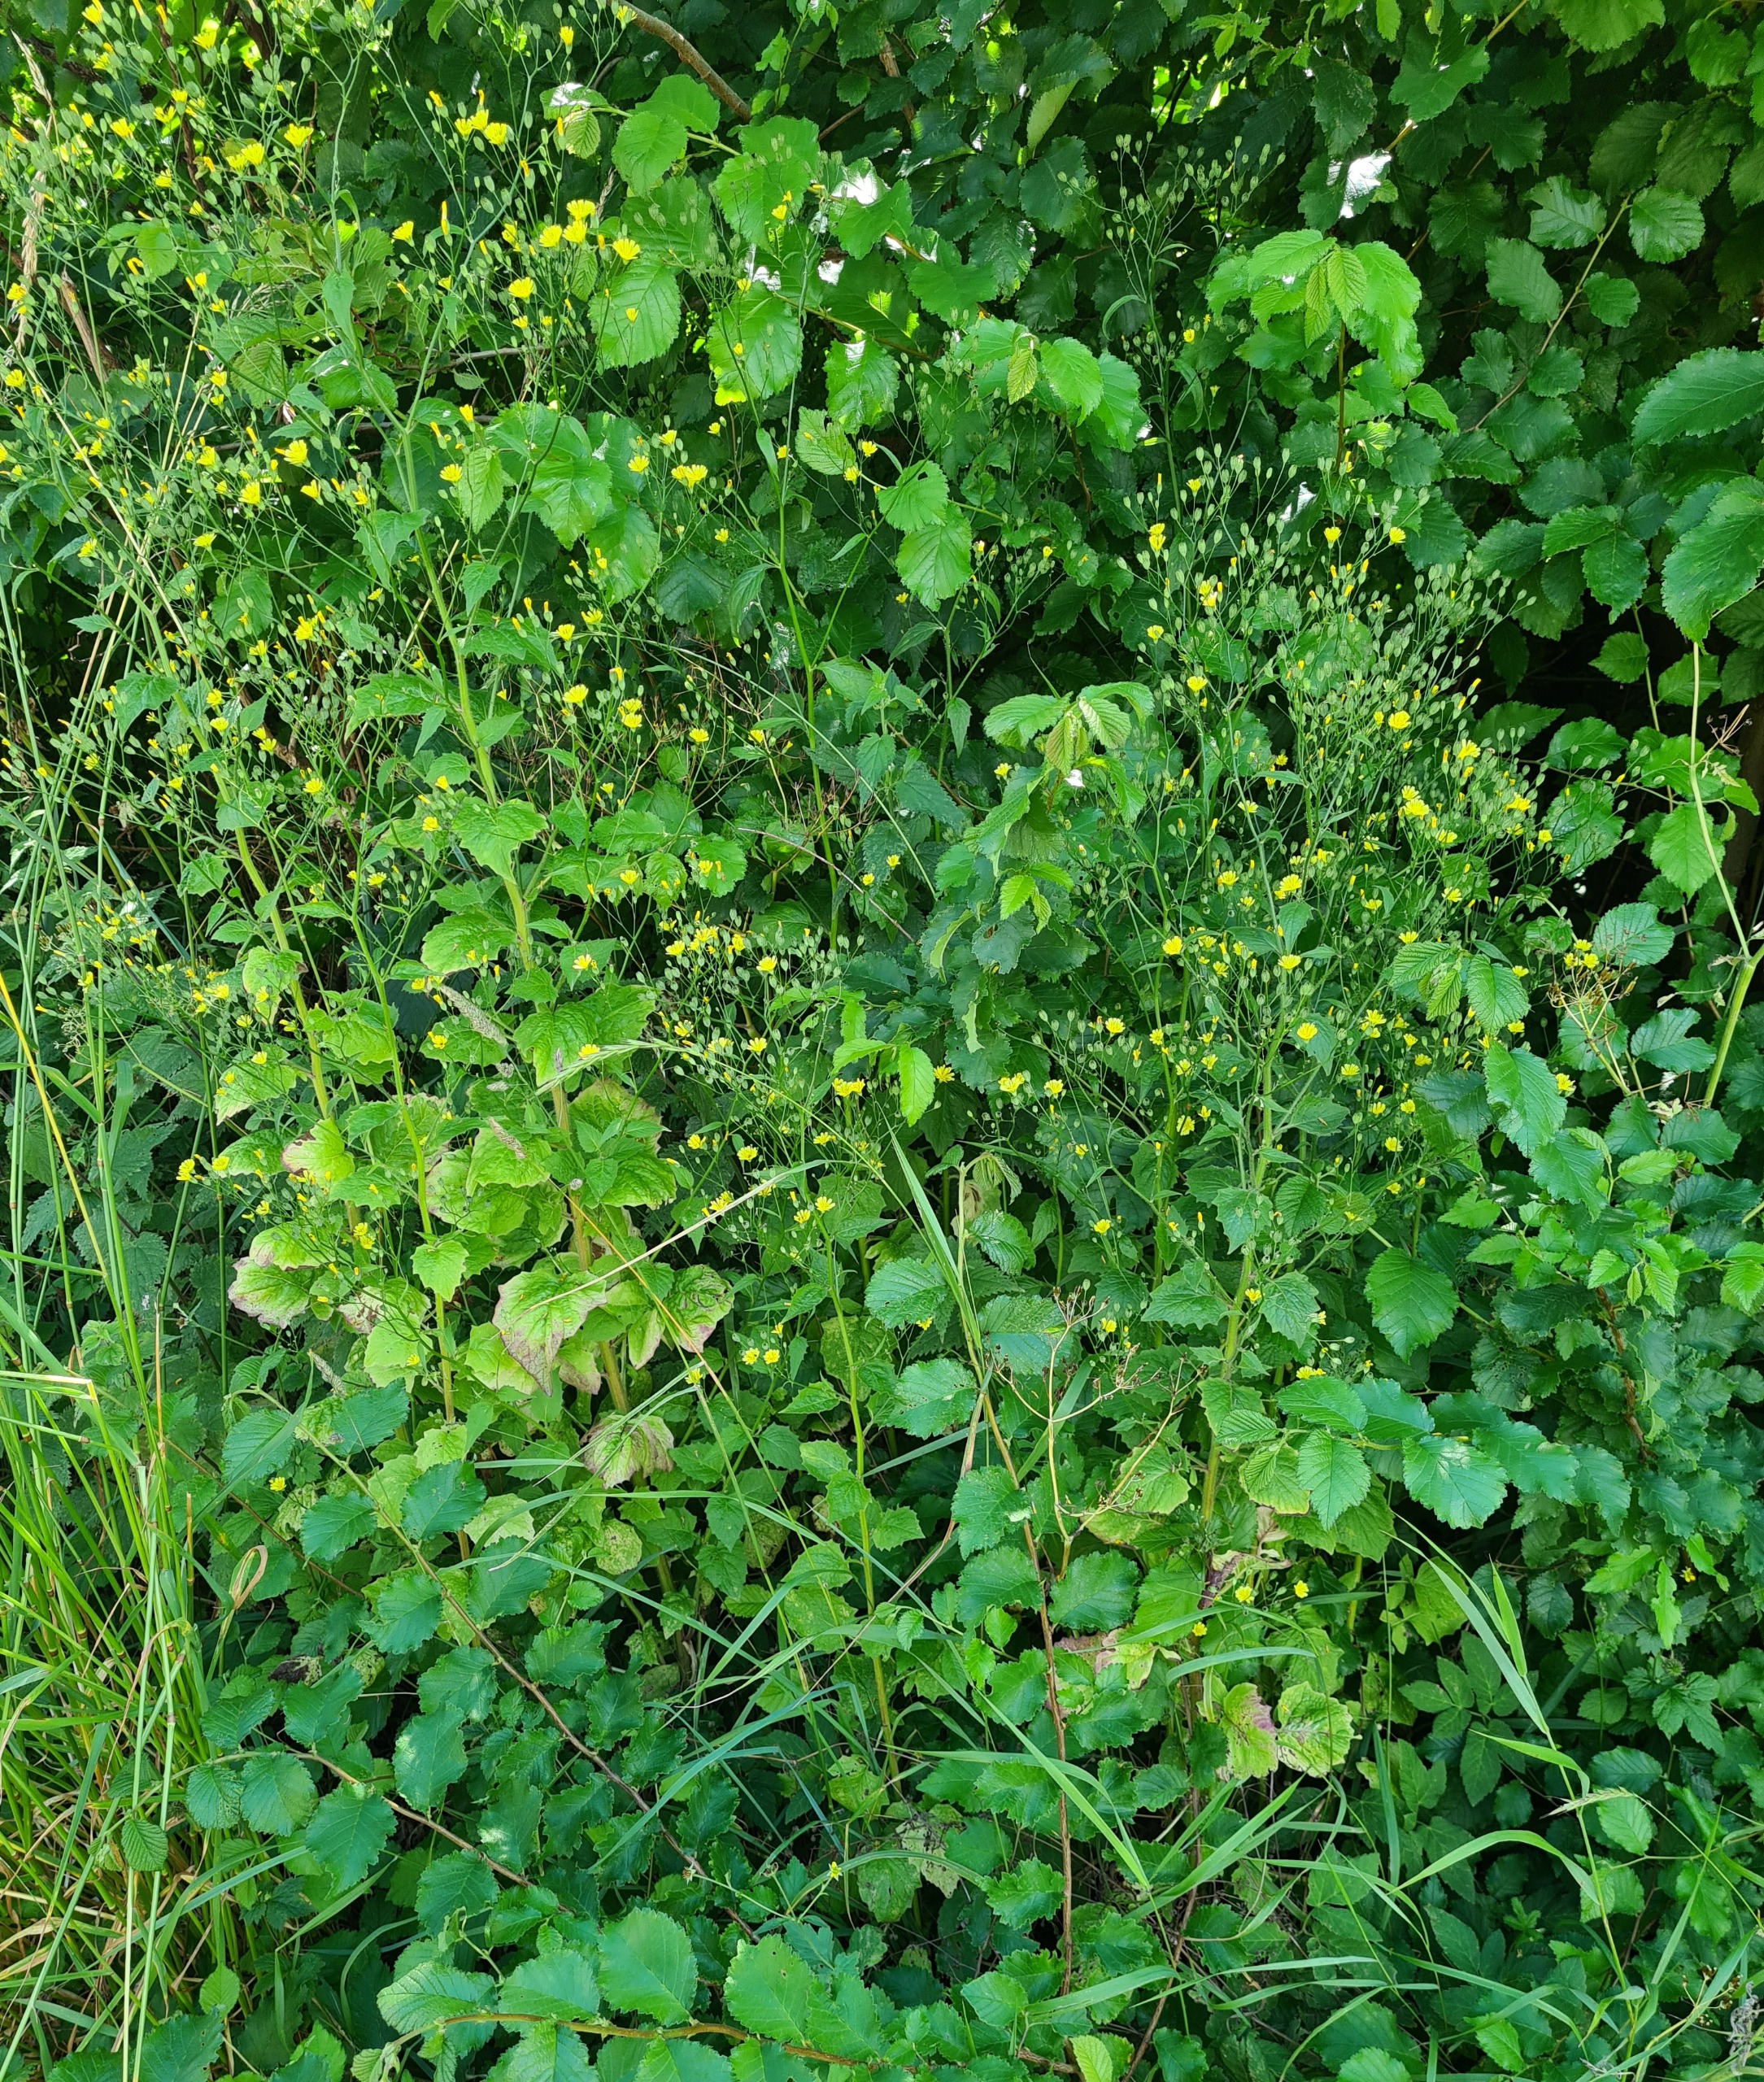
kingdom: Plantae
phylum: Tracheophyta
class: Magnoliopsida
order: Asterales
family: Asteraceae
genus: Lapsana
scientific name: Lapsana communis
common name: Haremad
